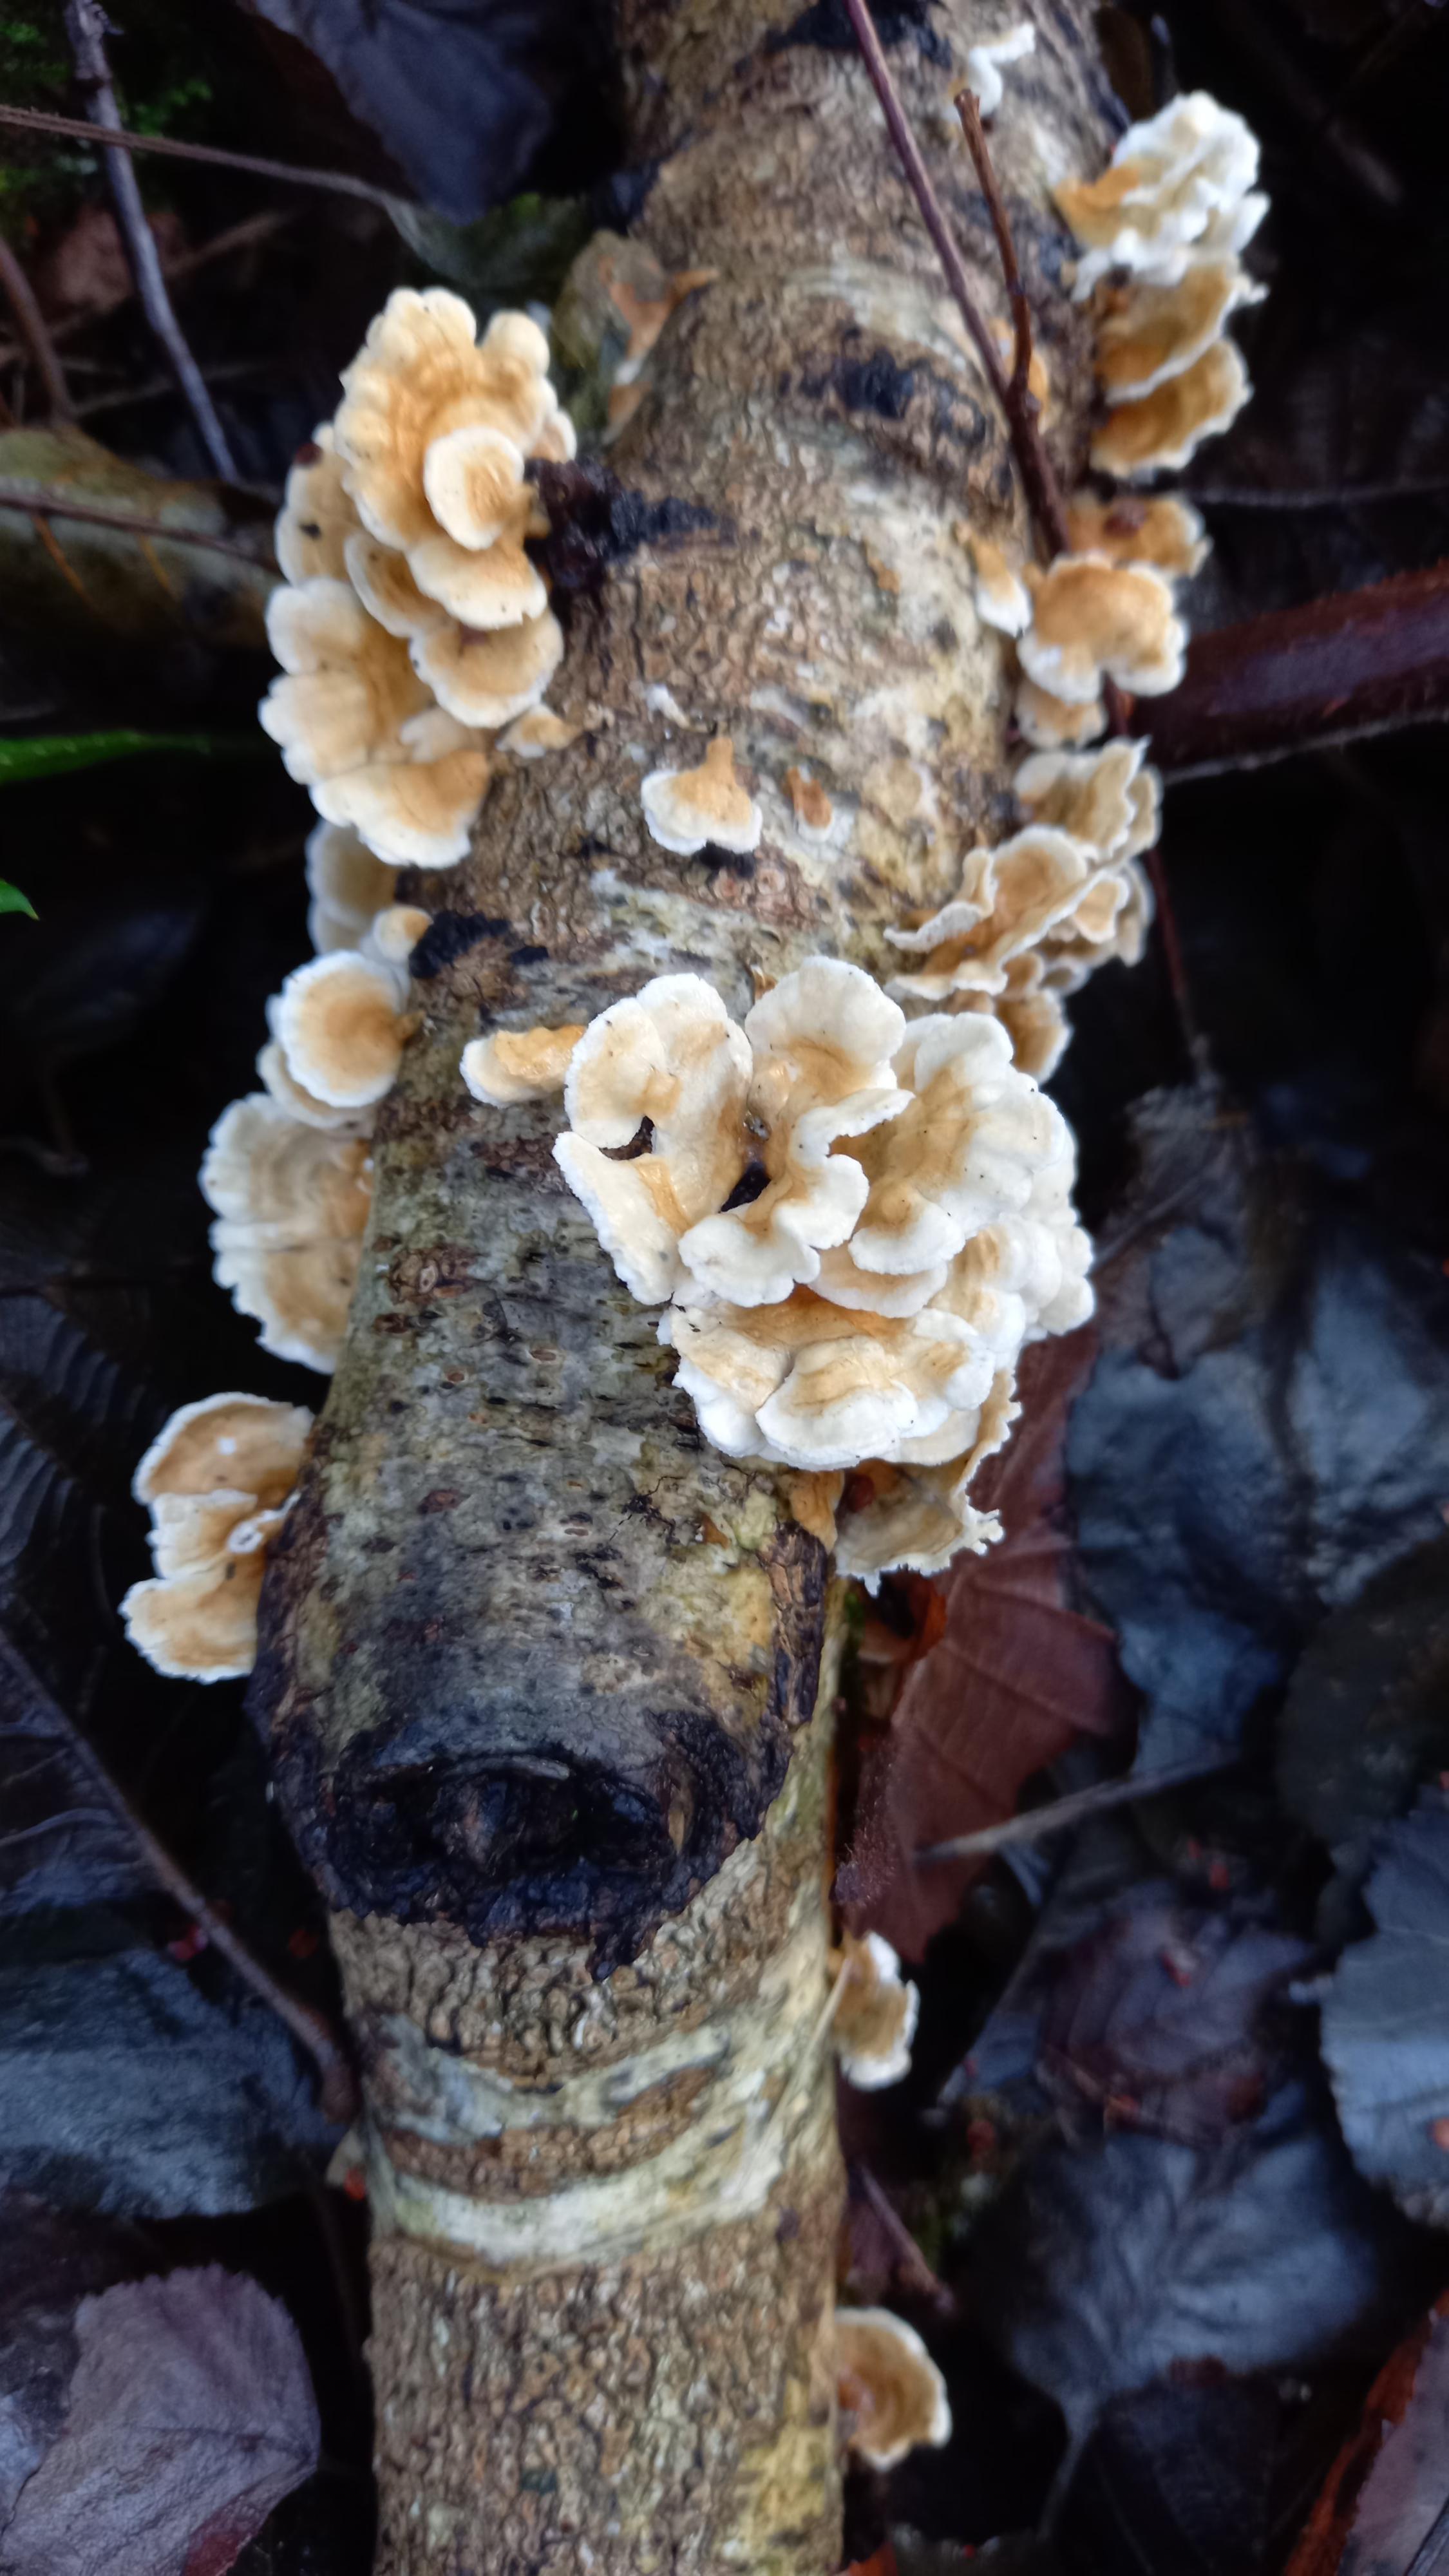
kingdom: Fungi
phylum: Basidiomycota
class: Agaricomycetes
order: Amylocorticiales
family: Amylocorticiaceae
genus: Plicaturopsis
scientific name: Plicaturopsis crispa
